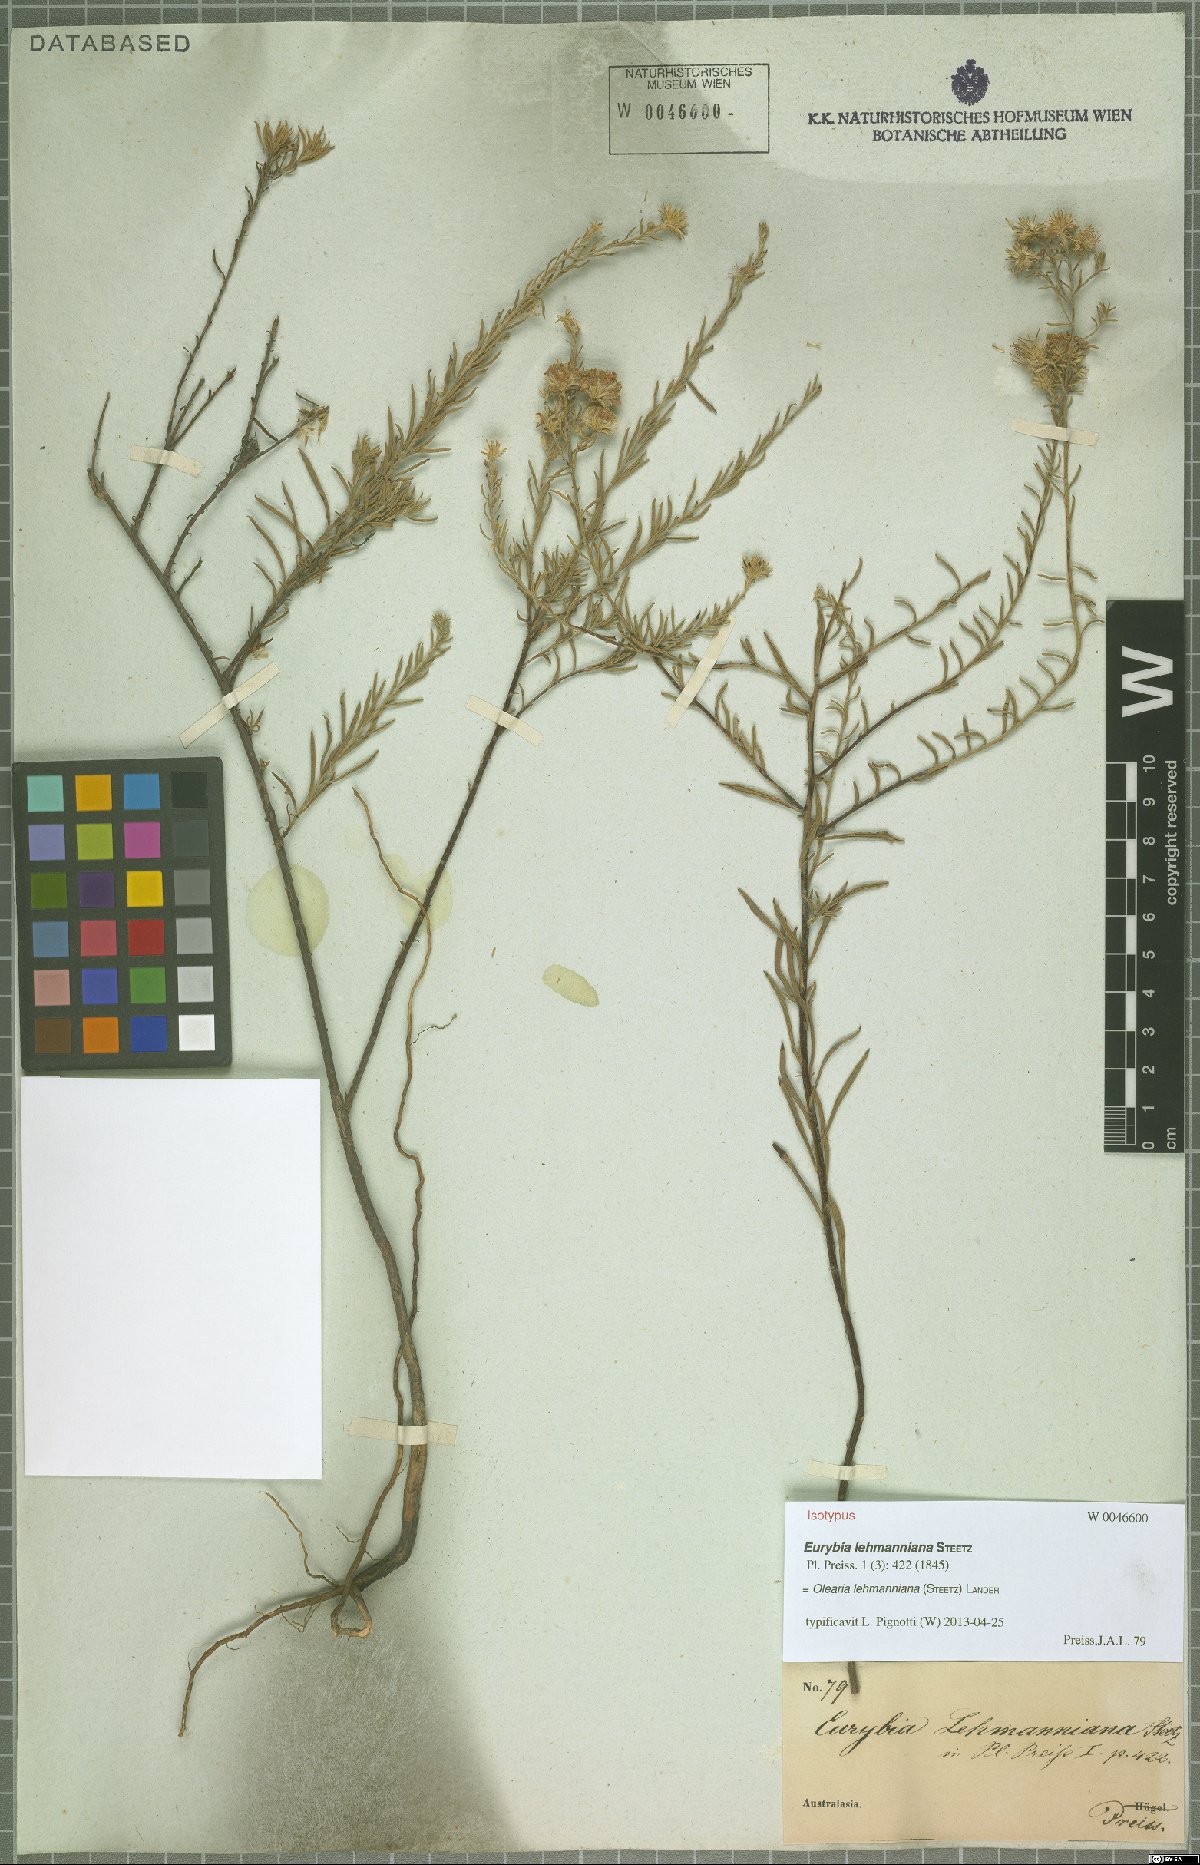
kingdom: Plantae
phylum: Tracheophyta
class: Magnoliopsida
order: Asterales
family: Asteraceae
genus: Olearia
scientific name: Olearia lehmanniana
